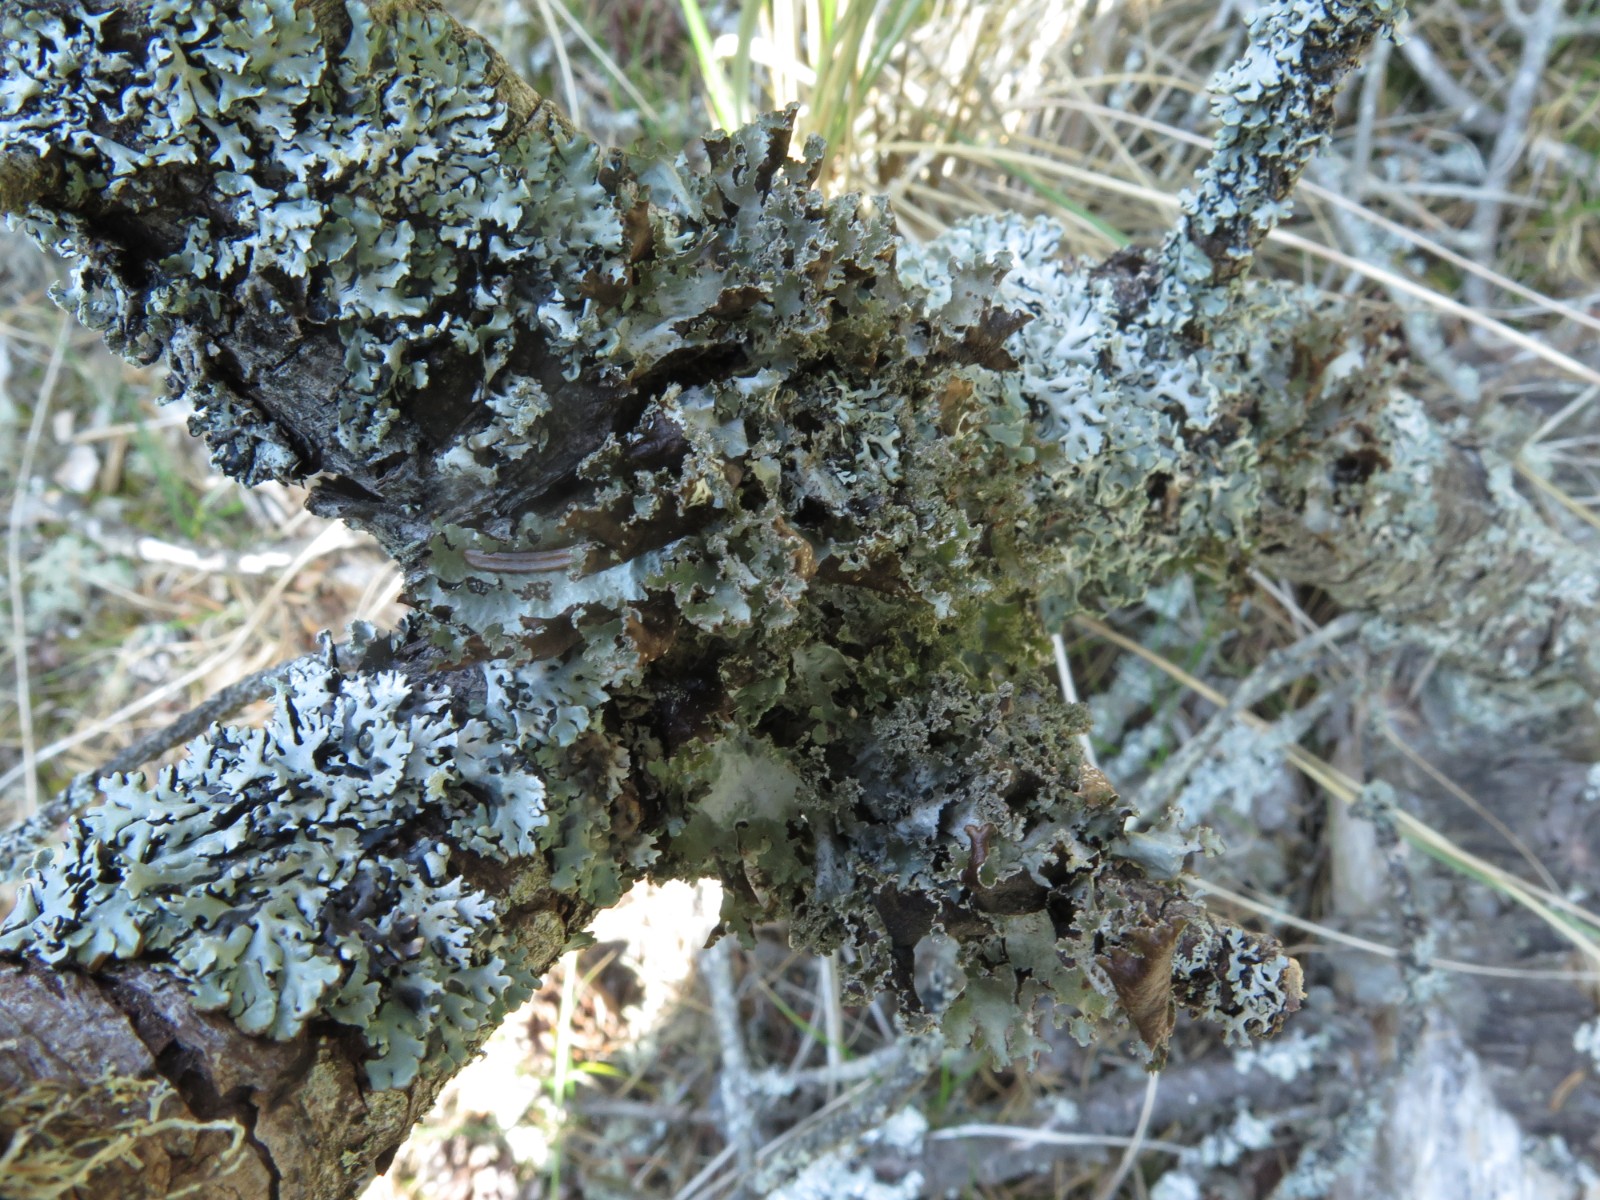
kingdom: Fungi
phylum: Ascomycota
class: Lecanoromycetes
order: Lecanorales
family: Parmeliaceae
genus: Platismatia
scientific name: Platismatia glauca
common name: blågrå papirlav
